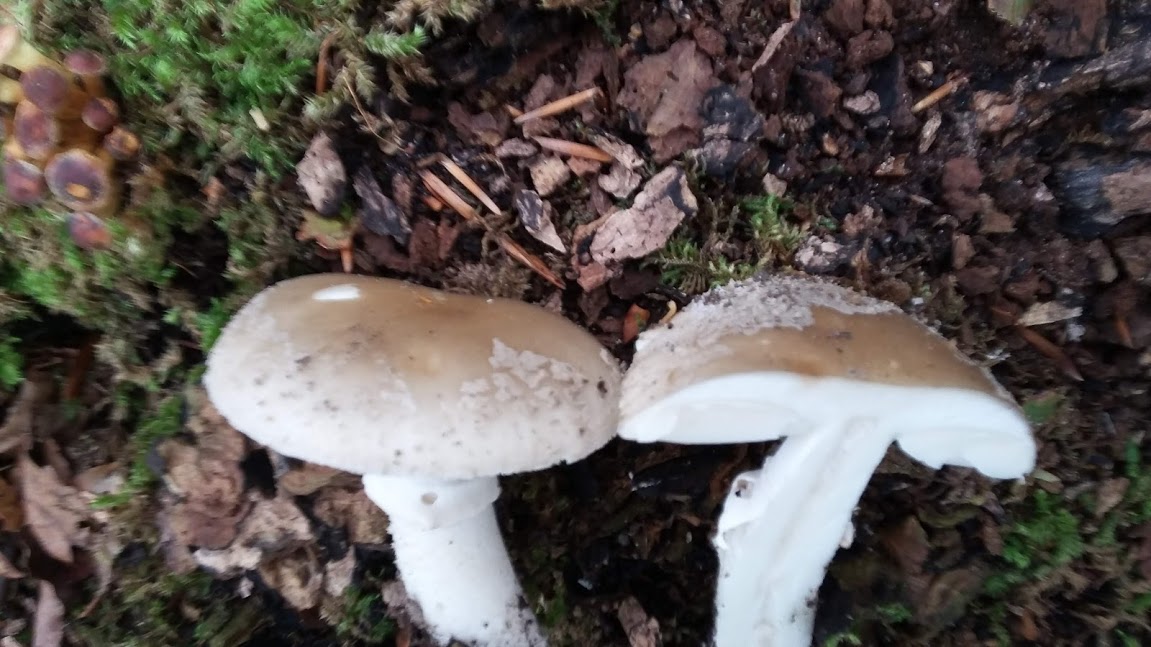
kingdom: Fungi
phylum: Basidiomycota
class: Agaricomycetes
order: Agaricales
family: Amanitaceae
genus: Amanita
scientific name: Amanita
